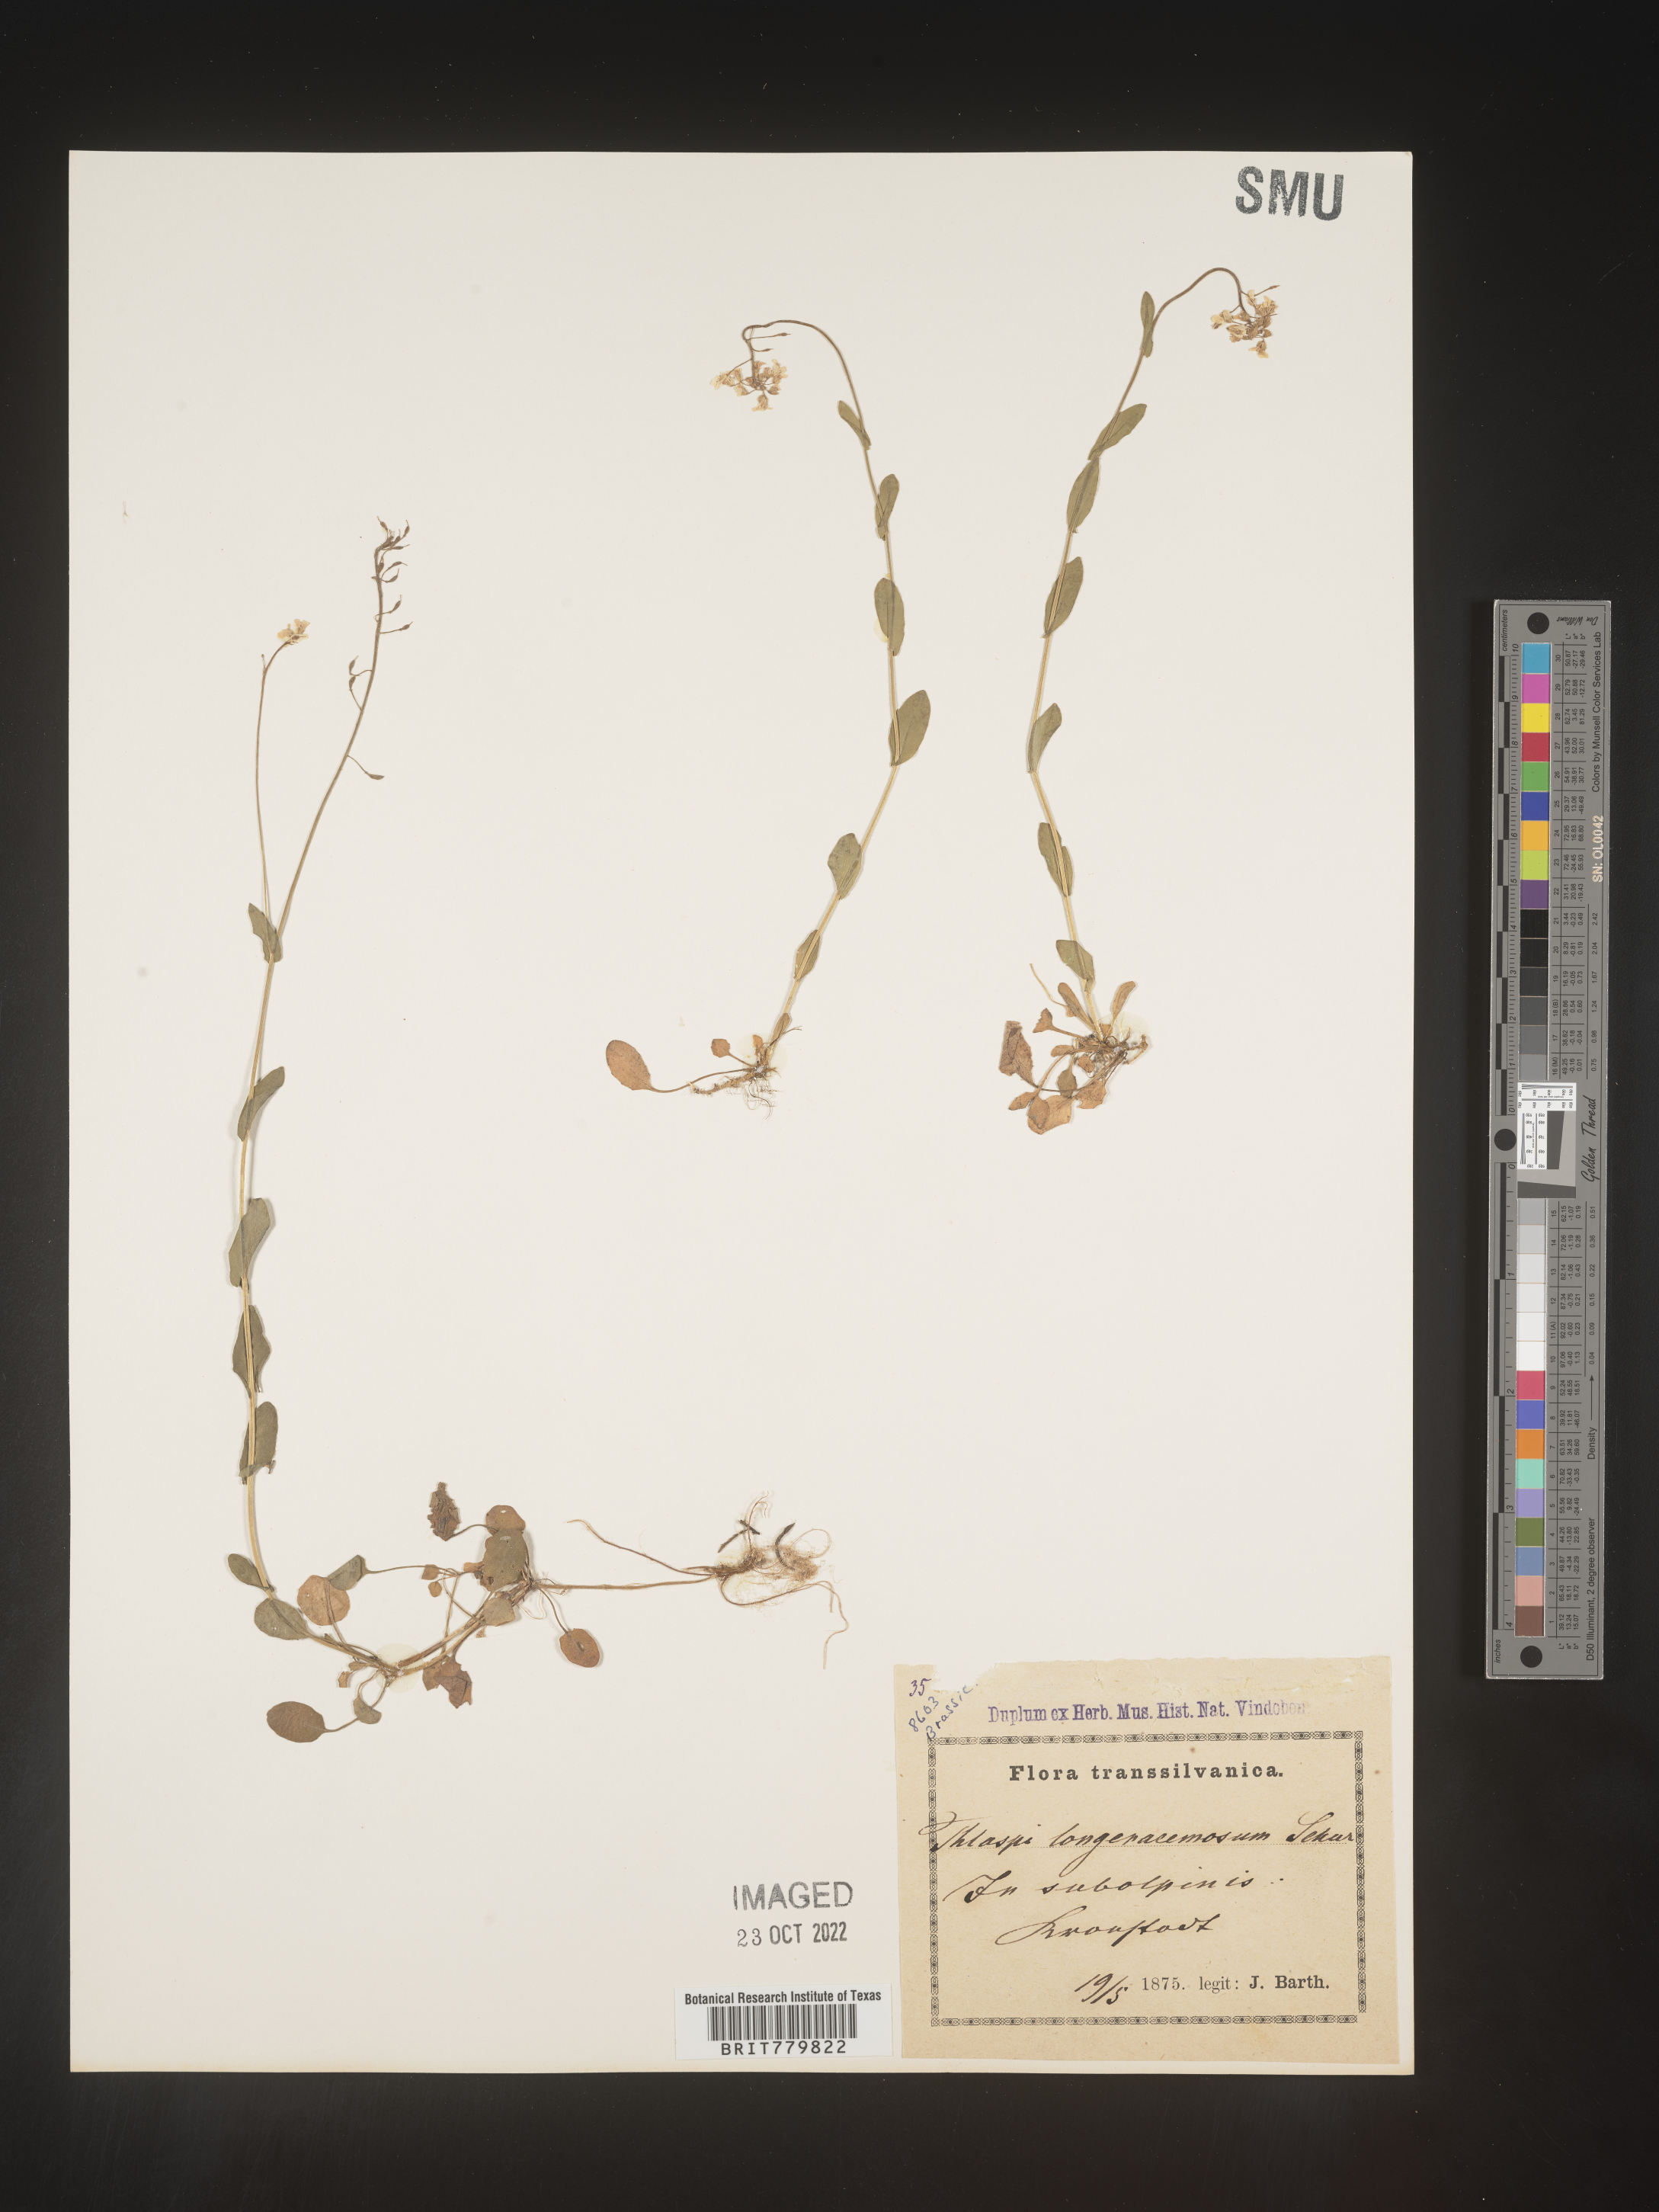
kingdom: Plantae
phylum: Tracheophyta
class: Magnoliopsida
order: Brassicales
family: Brassicaceae
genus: Thlaspi
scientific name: Thlaspi
